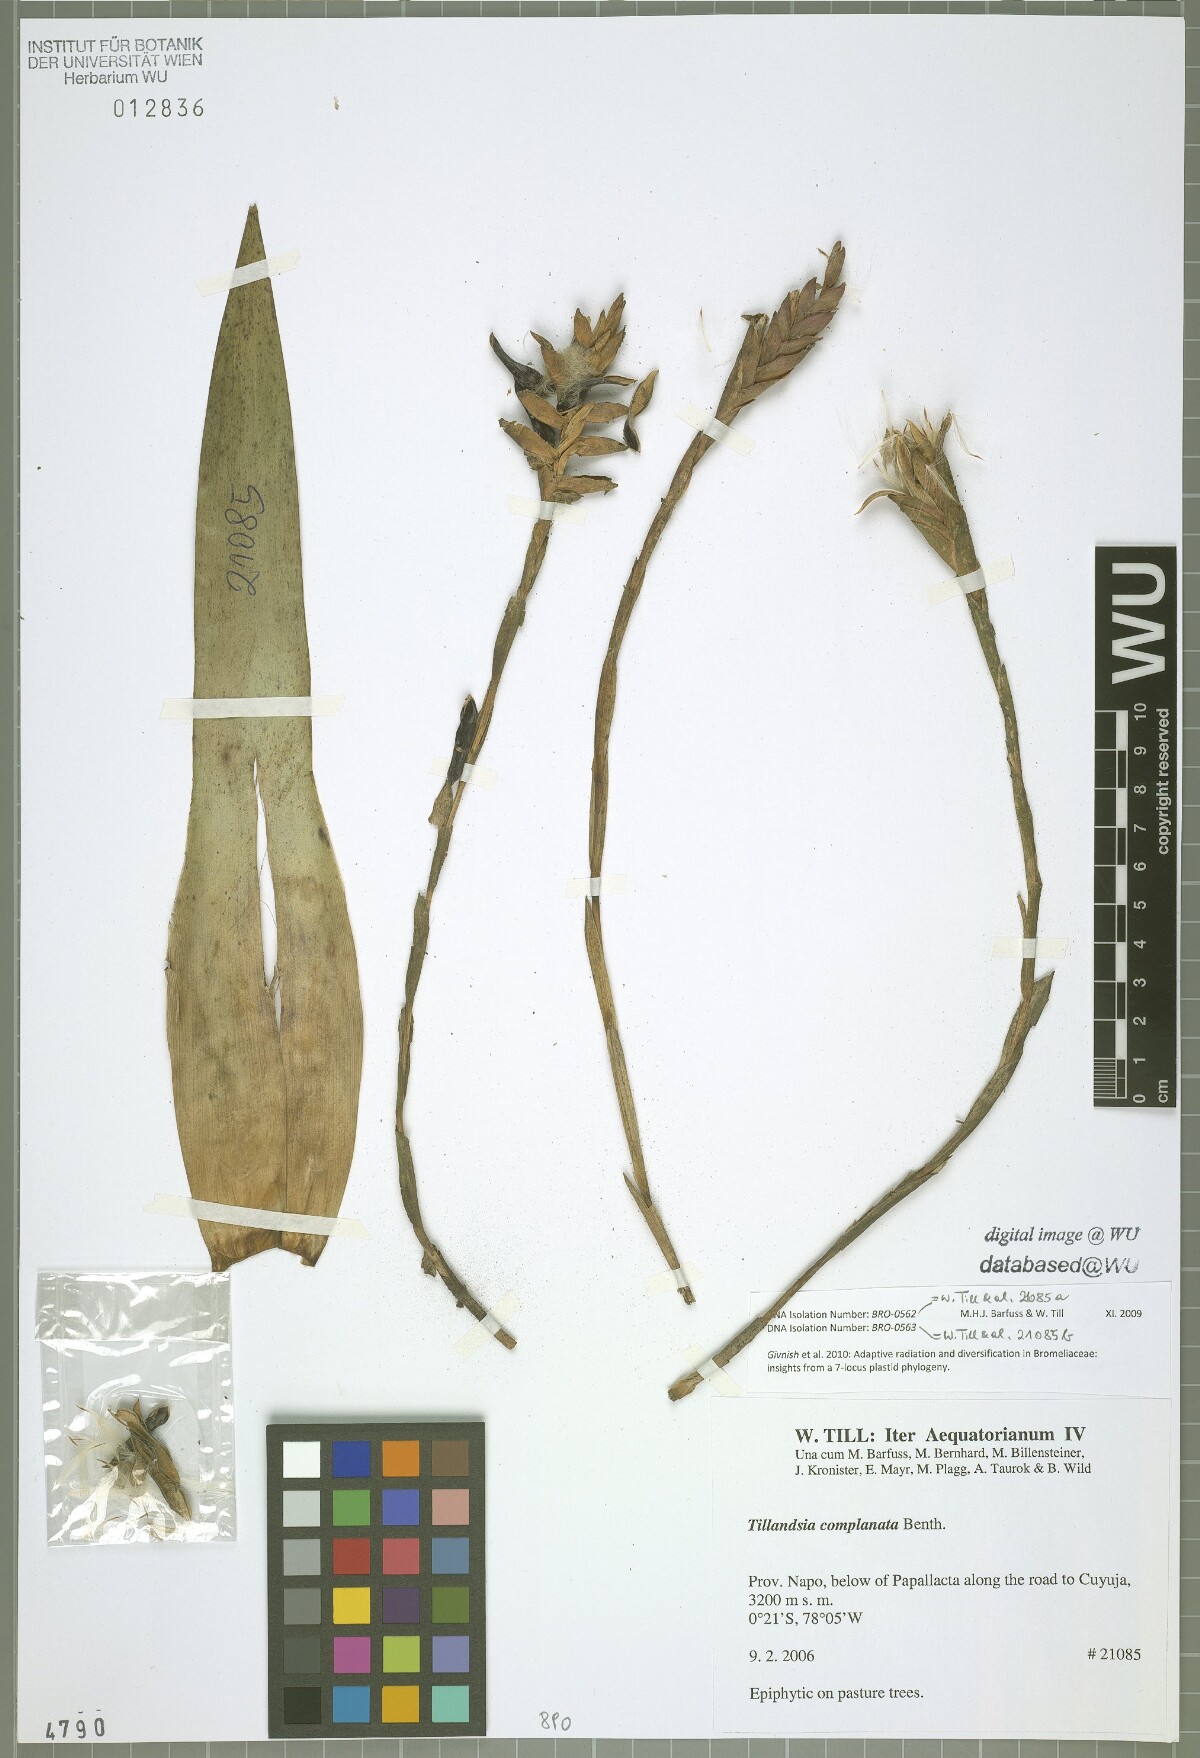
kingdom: Plantae
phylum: Tracheophyta
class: Liliopsida
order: Poales
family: Bromeliaceae
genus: Tillandsia
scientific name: Tillandsia complanata
